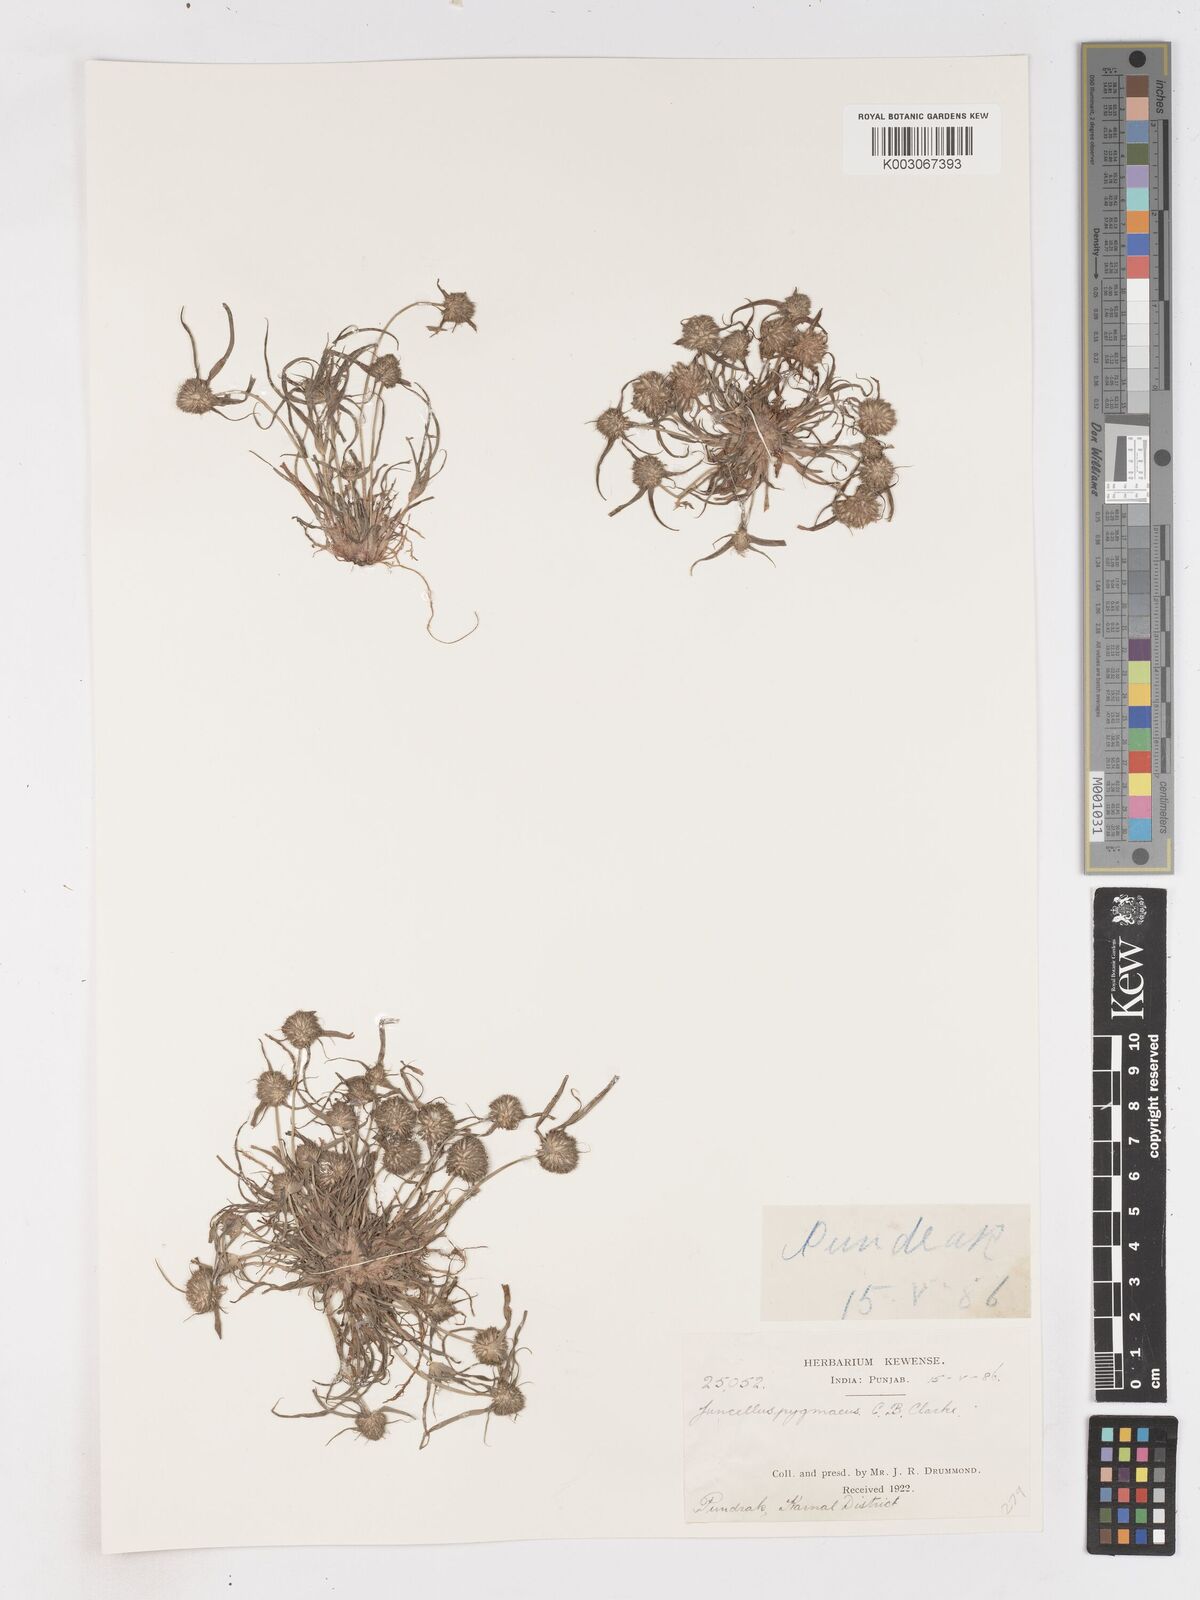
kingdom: Plantae
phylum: Tracheophyta
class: Liliopsida
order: Poales
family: Cyperaceae
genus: Cyperus
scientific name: Cyperus michelianus
